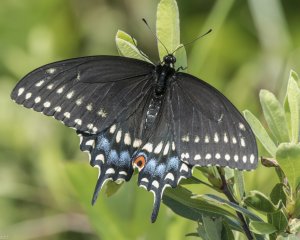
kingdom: Animalia
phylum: Arthropoda
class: Insecta
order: Lepidoptera
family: Papilionidae
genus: Papilio
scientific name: Papilio polyxenes
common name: Black Swallowtail
